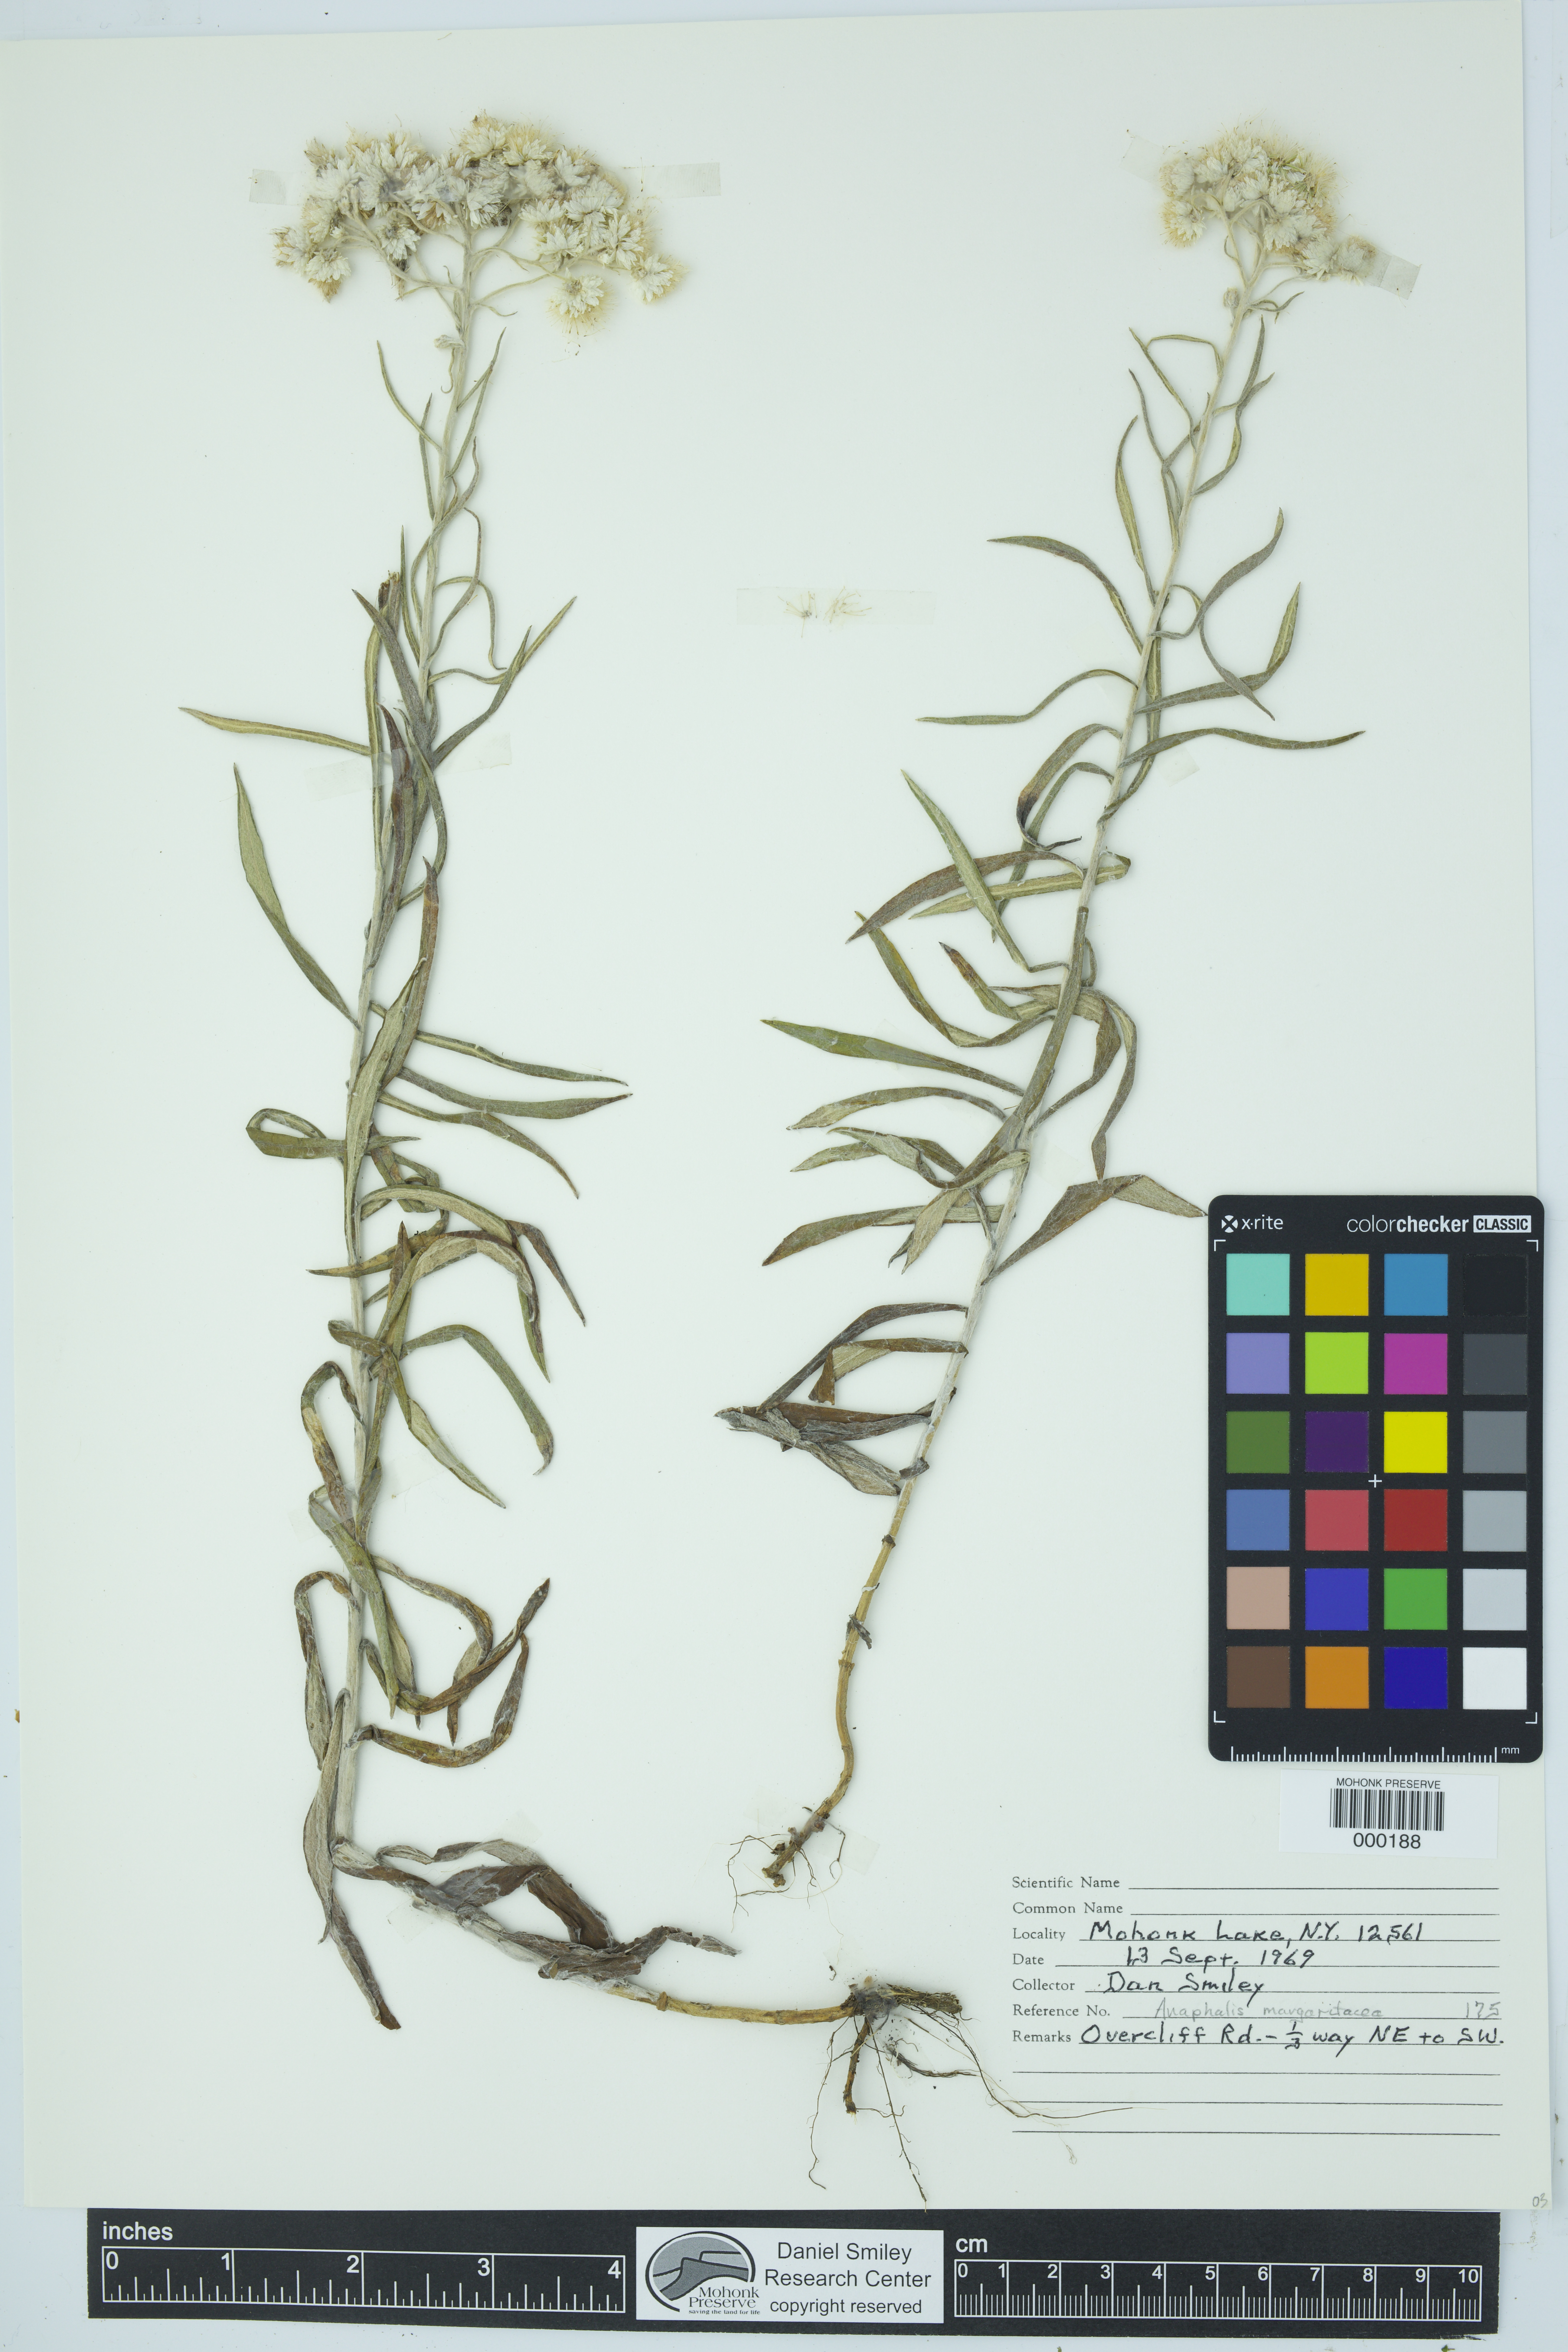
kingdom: Plantae
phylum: Tracheophyta
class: Magnoliopsida
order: Asterales
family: Asteraceae
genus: Anaphalis
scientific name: Anaphalis margaritacea
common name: Pearly everlasting
